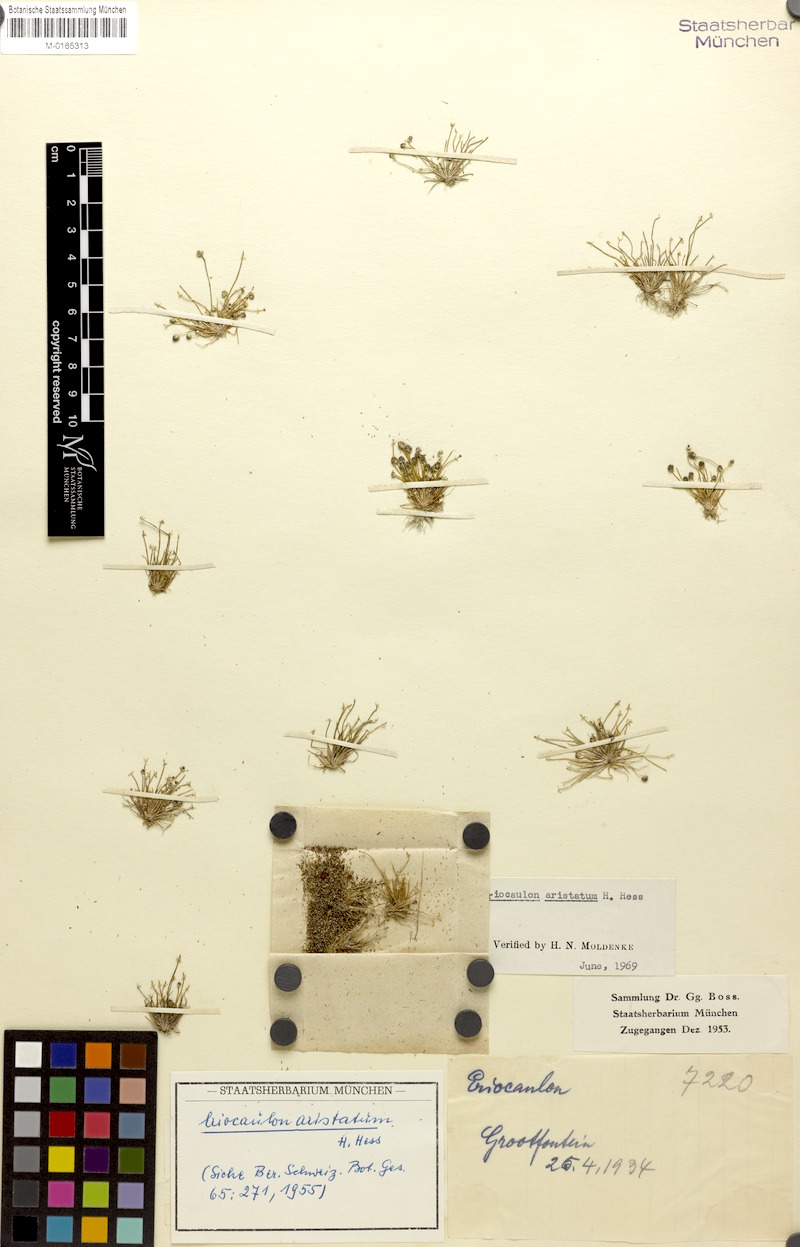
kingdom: Plantae
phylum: Tracheophyta
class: Liliopsida
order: Poales
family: Eriocaulaceae
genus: Eriocaulon
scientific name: Eriocaulon welwitschii
